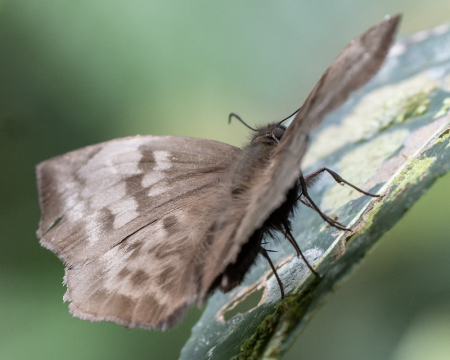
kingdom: Animalia
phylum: Arthropoda
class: Insecta
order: Lepidoptera
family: Hesperiidae
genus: Achlyodes
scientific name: Achlyodes pallida
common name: Pale Sicklewing
